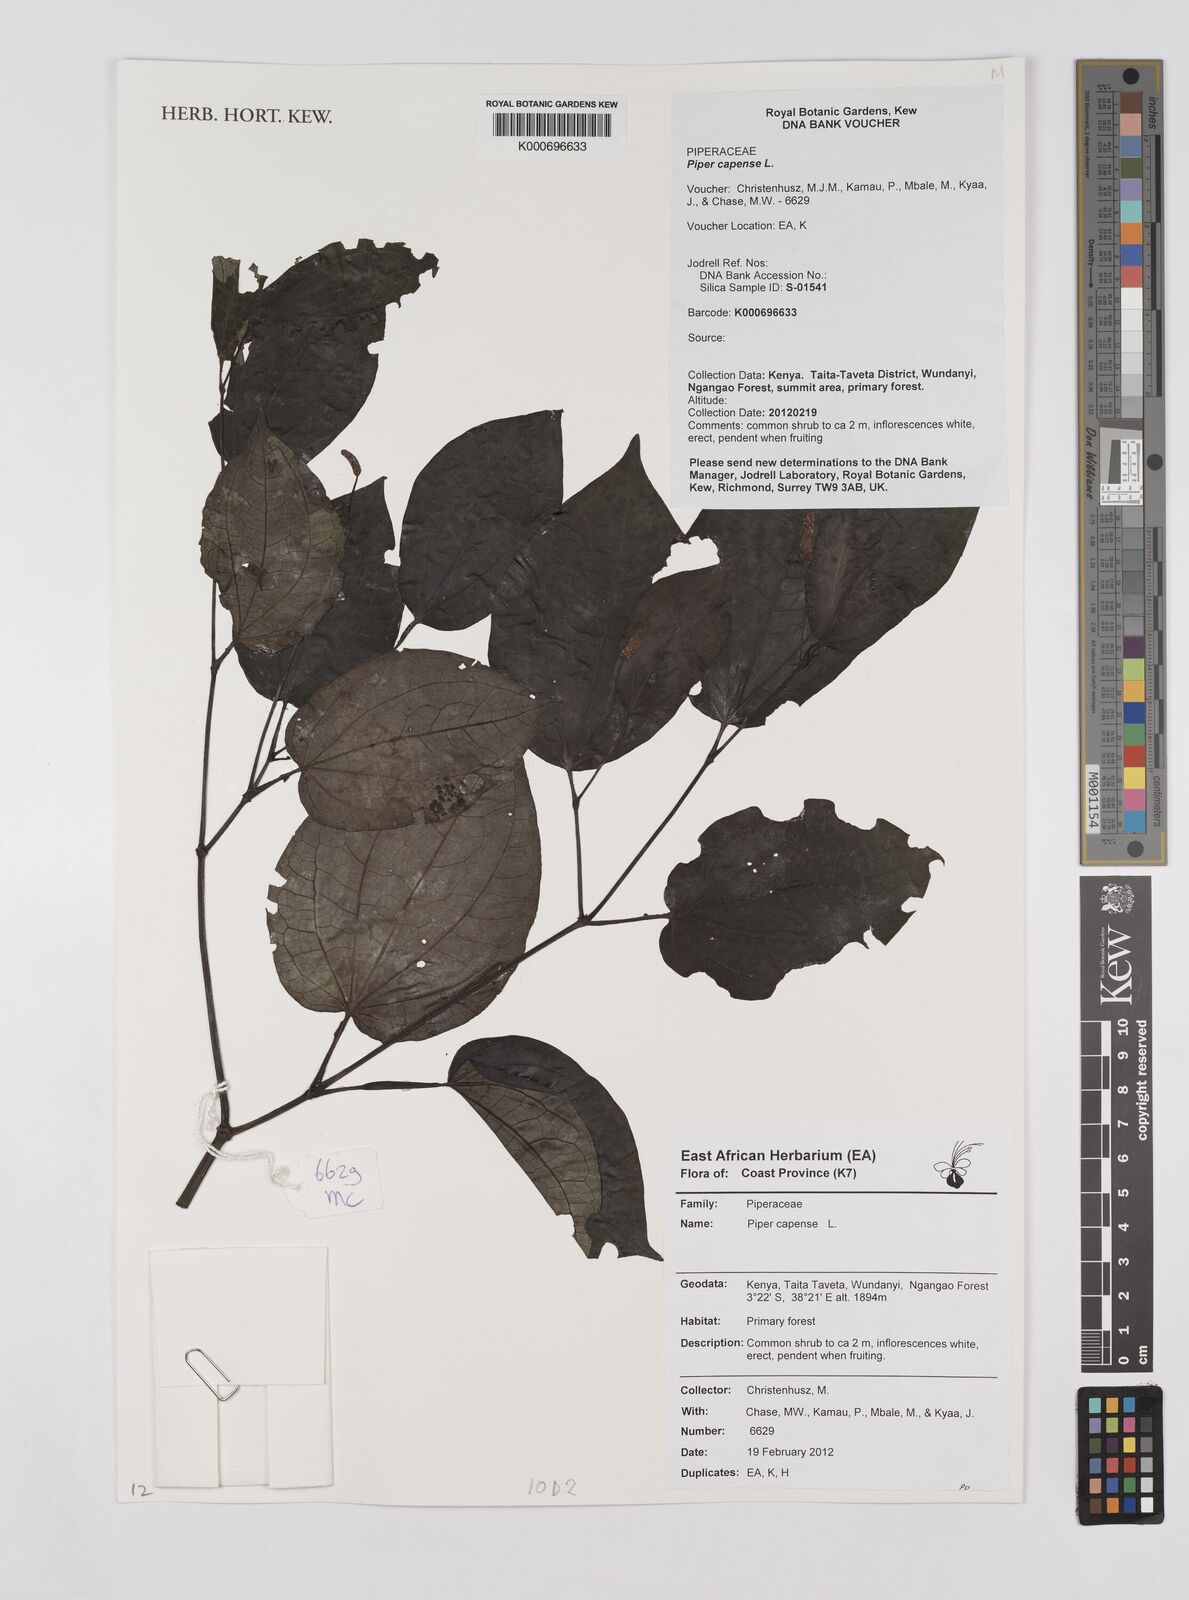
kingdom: Plantae
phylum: Tracheophyta
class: Magnoliopsida
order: Piperales
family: Piperaceae
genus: Piper
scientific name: Piper capense
